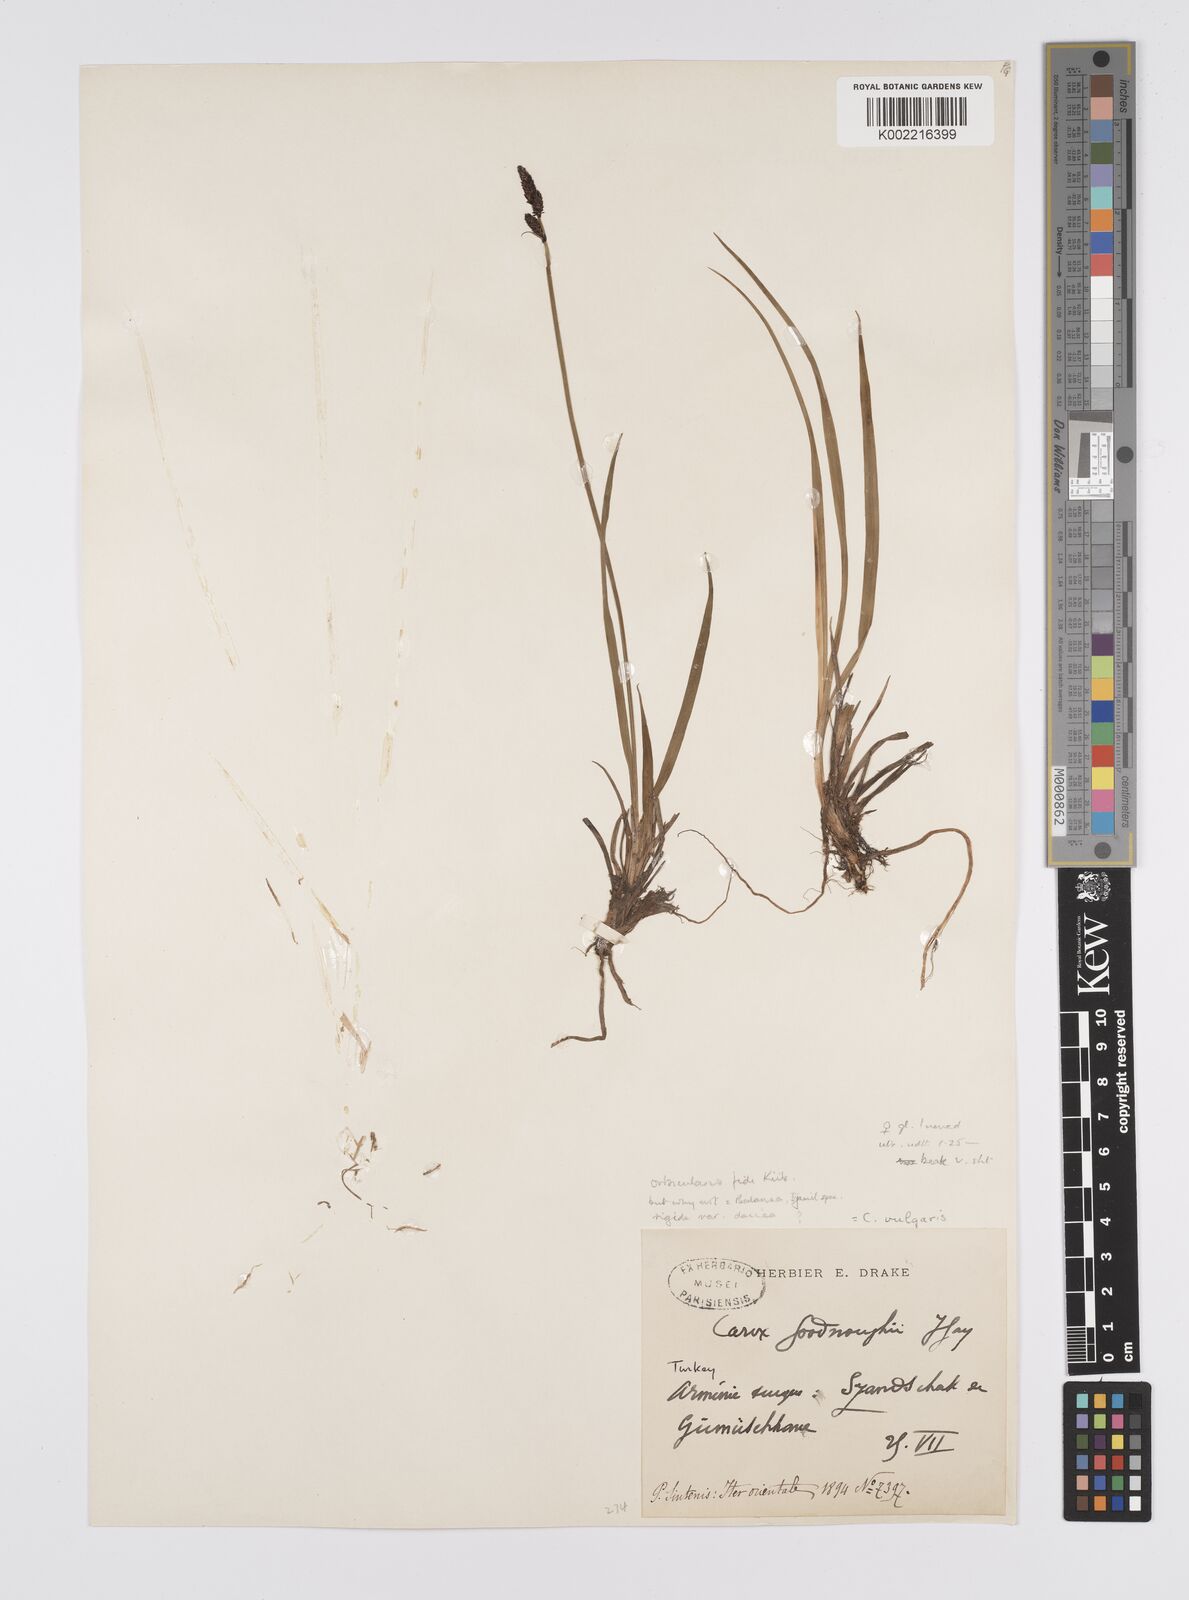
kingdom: Plantae
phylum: Tracheophyta
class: Liliopsida
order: Poales
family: Cyperaceae
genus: Carex
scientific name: Carex dacica
